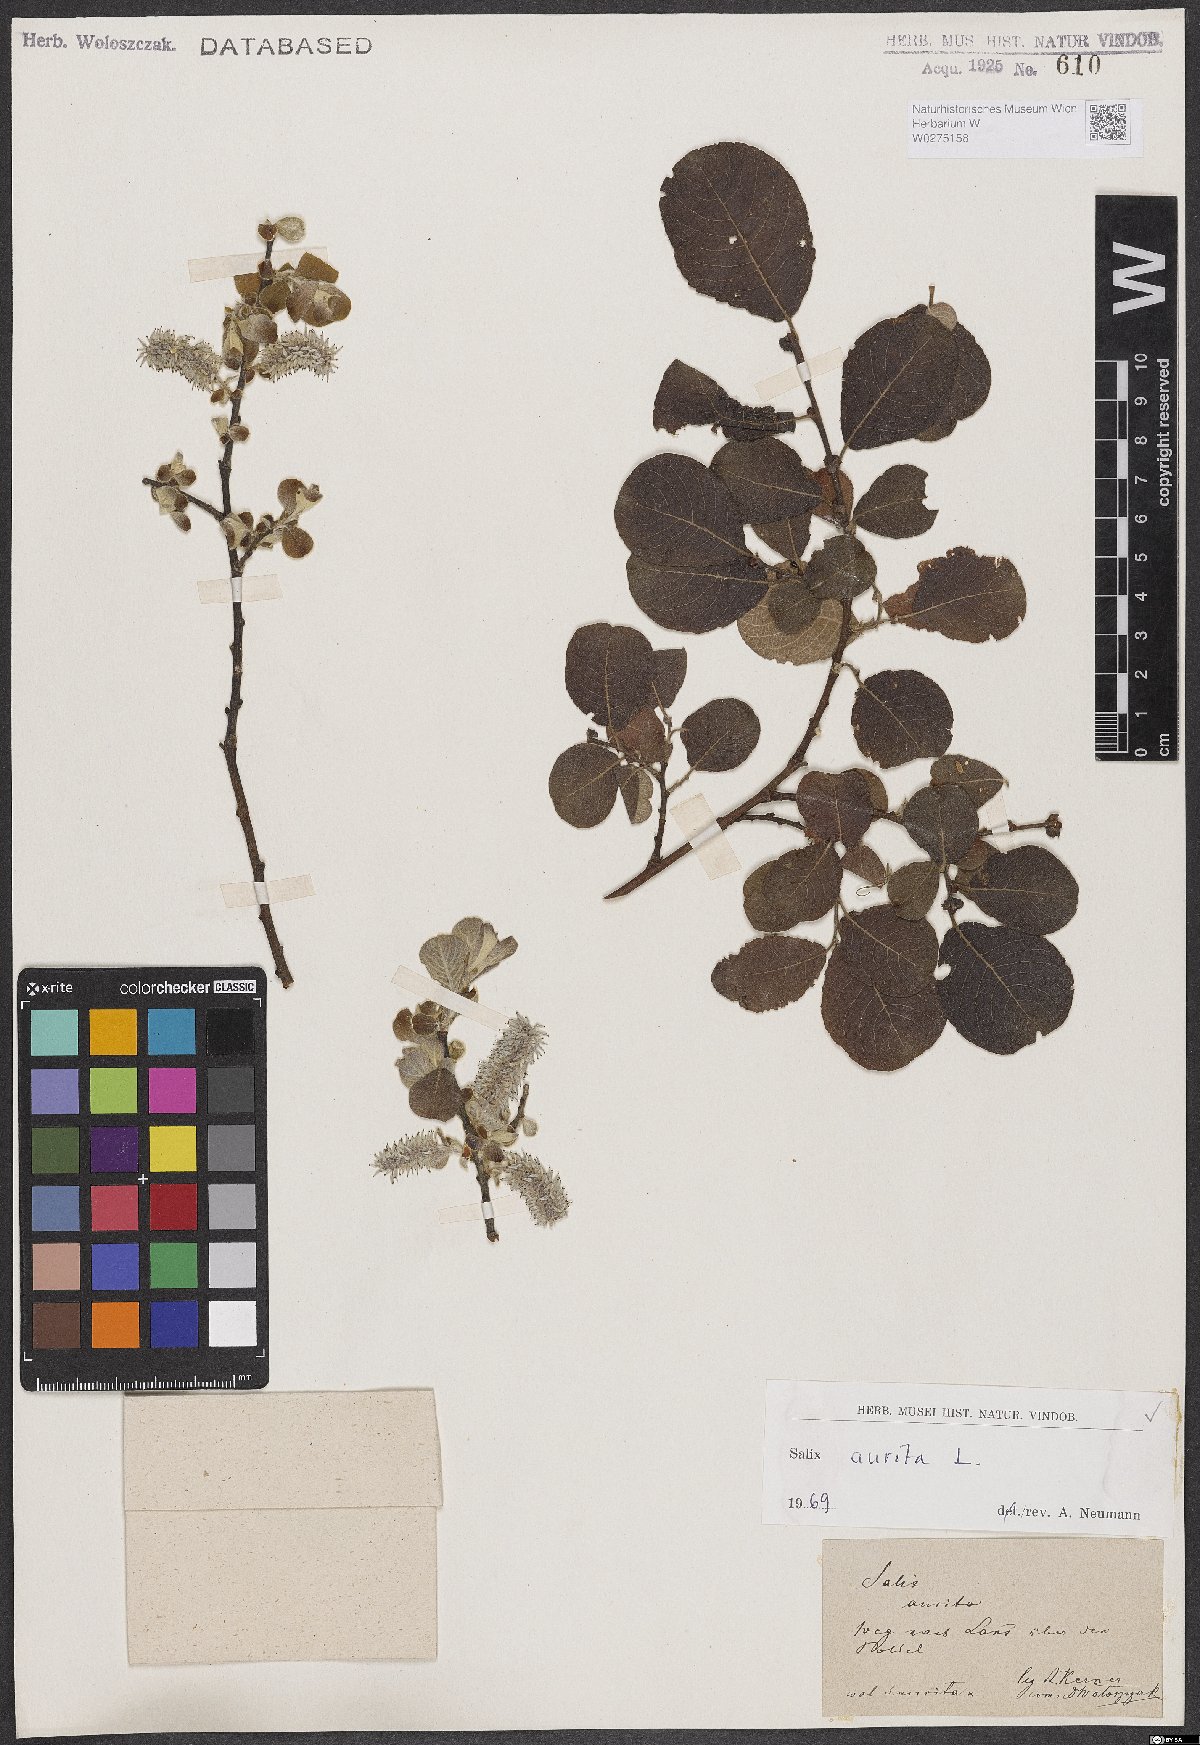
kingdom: Plantae
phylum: Tracheophyta
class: Magnoliopsida
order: Malpighiales
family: Salicaceae
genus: Salix
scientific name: Salix aurita
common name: Eared willow
